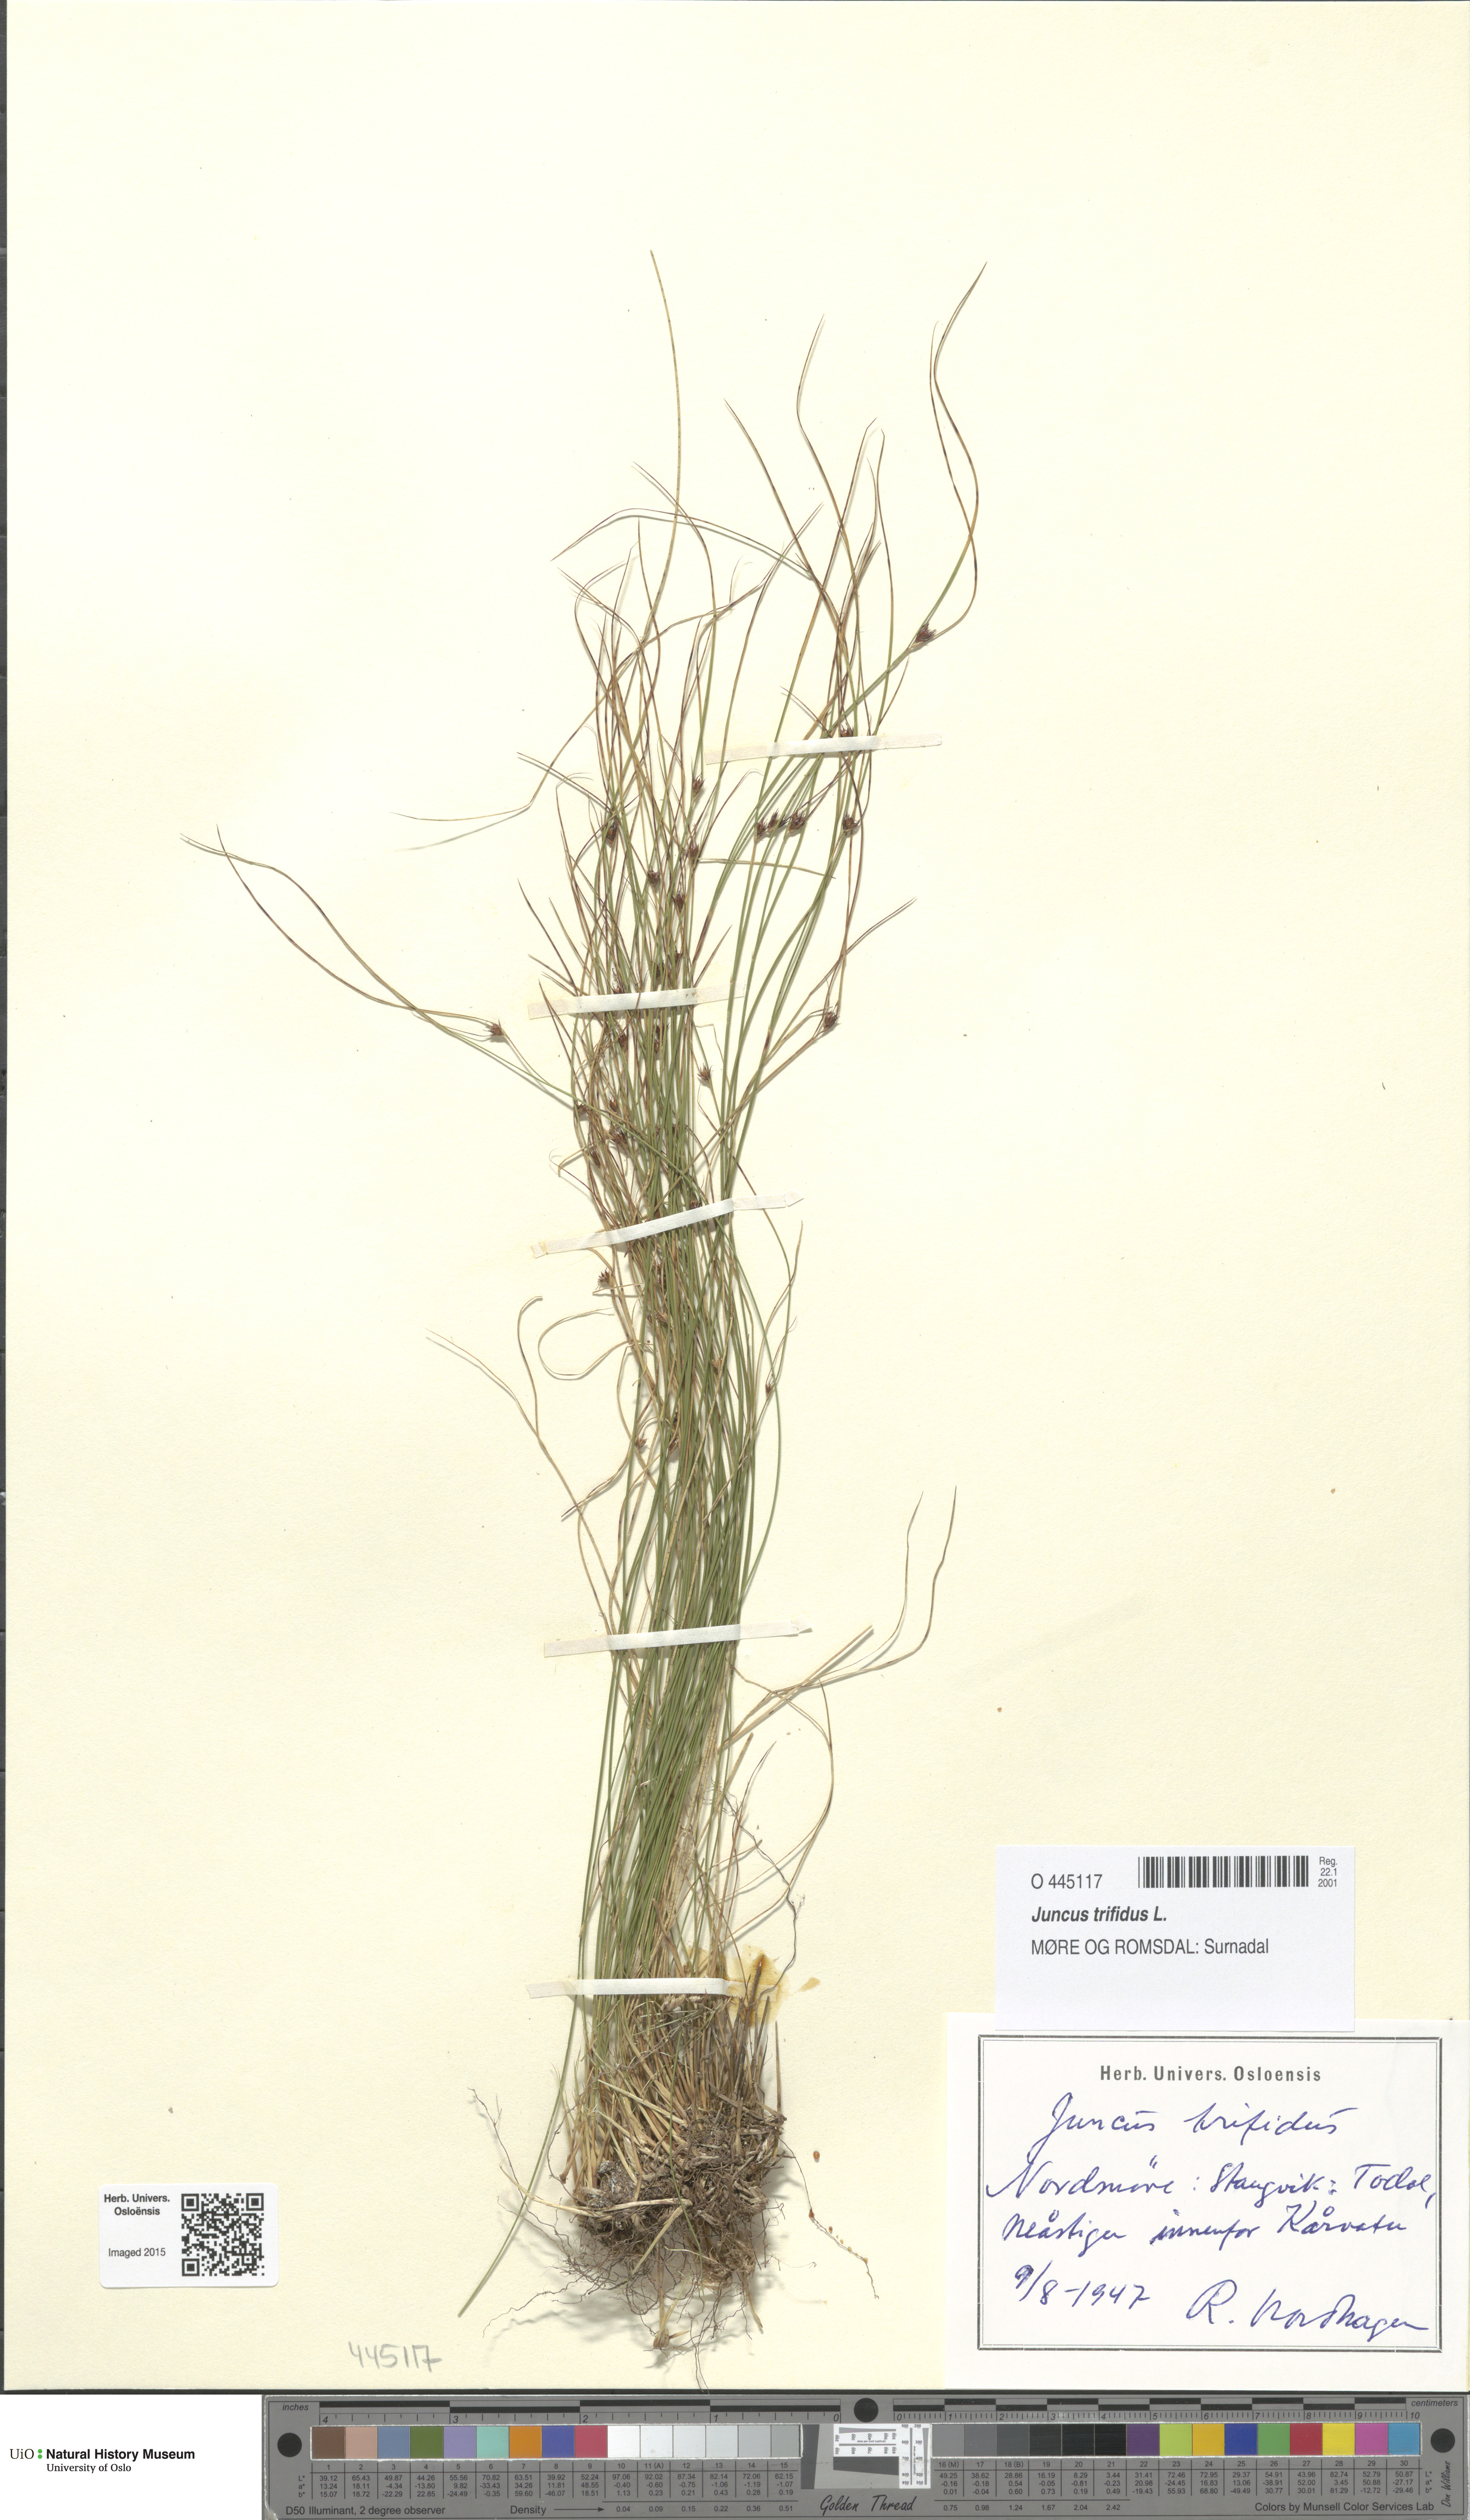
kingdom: Plantae
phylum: Tracheophyta
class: Liliopsida
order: Poales
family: Juncaceae
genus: Oreojuncus
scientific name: Oreojuncus trifidus
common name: Highland rush
